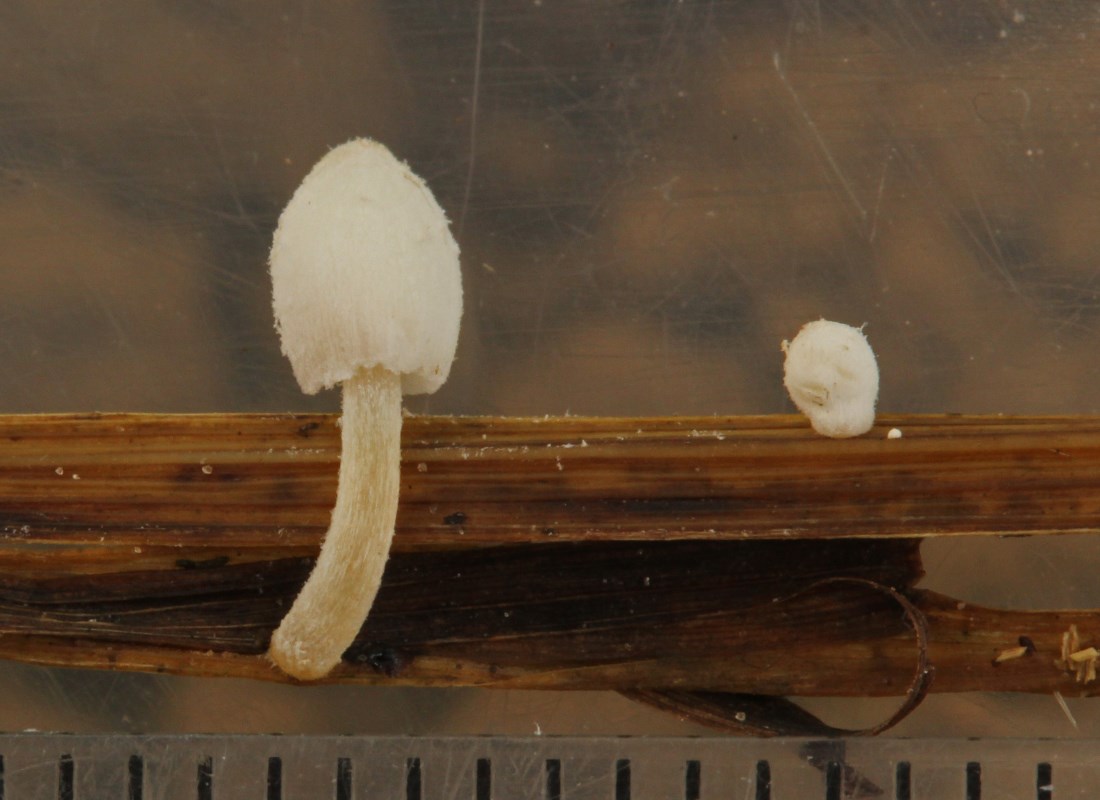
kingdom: Fungi
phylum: Basidiomycota
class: Agaricomycetes
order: Agaricales
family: Psathyrellaceae
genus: Coprinopsis
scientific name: Coprinopsis
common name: blækhat
